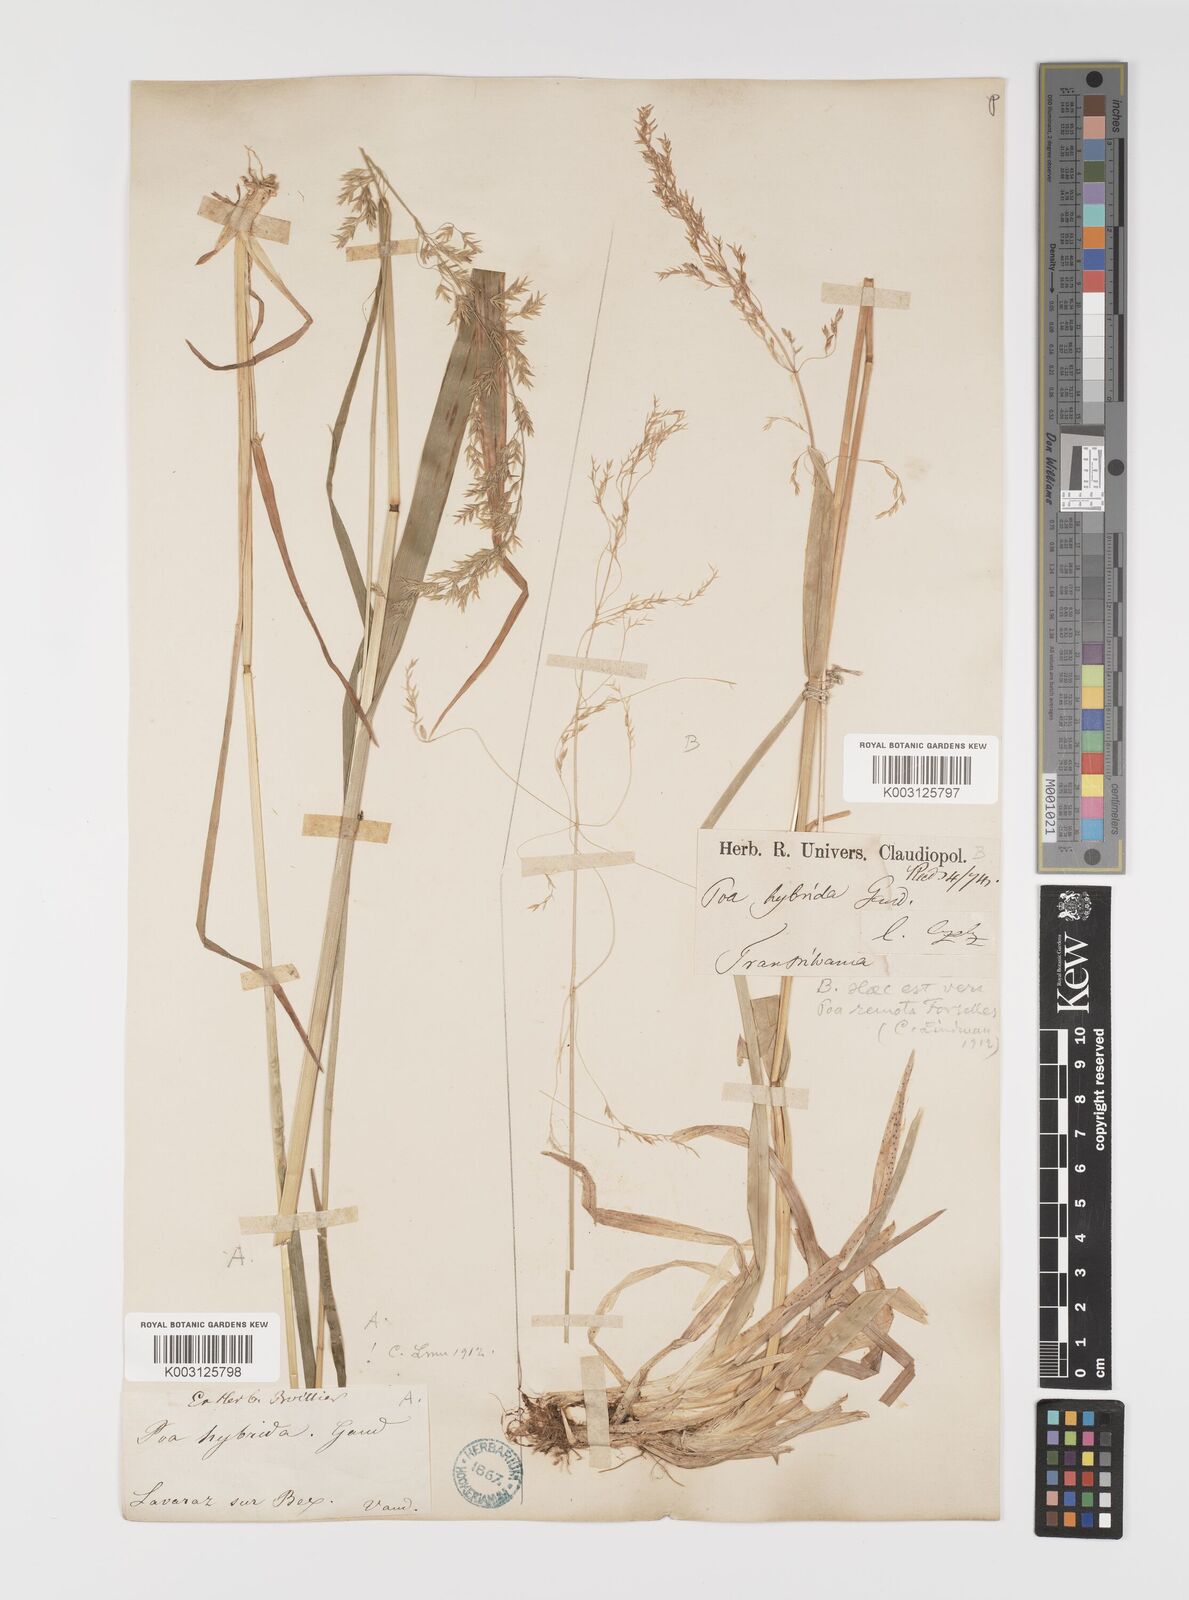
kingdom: Plantae
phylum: Tracheophyta
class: Liliopsida
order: Poales
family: Poaceae
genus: Poa
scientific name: Poa hybrida
